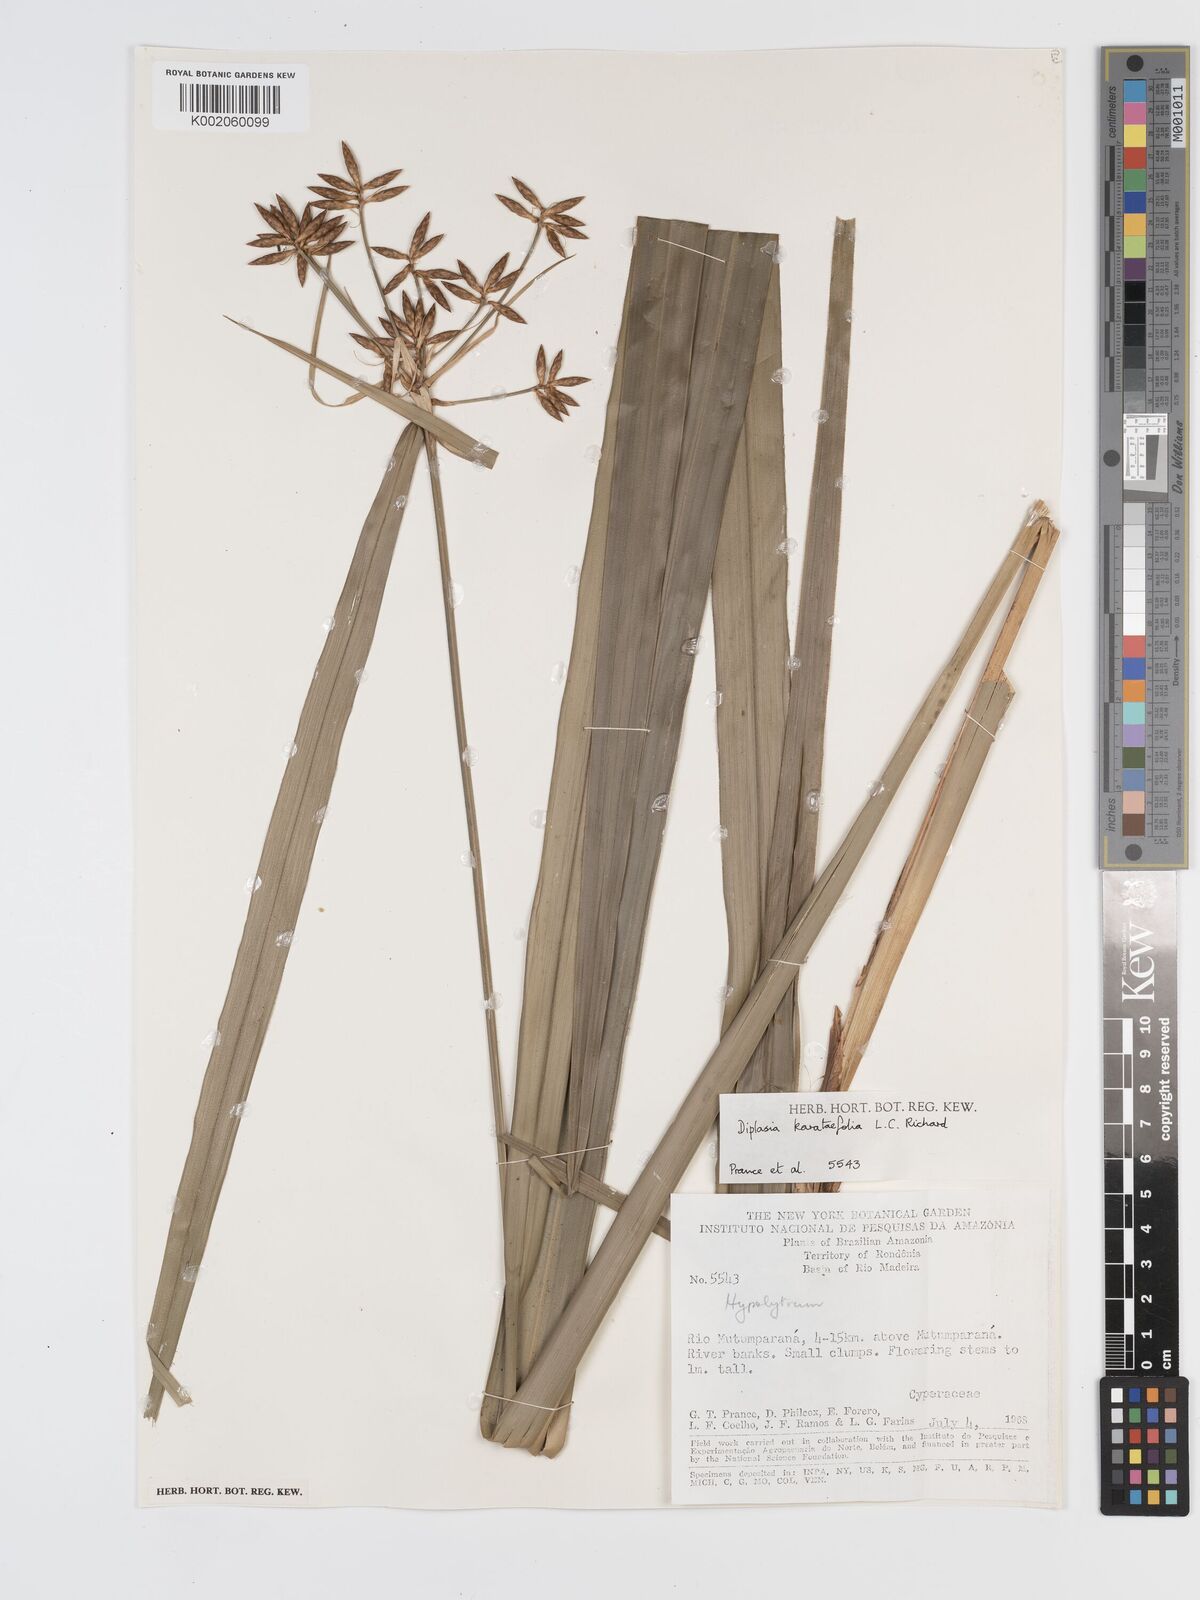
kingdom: Plantae
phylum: Tracheophyta
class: Liliopsida
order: Poales
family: Cyperaceae
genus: Diplasia
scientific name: Diplasia karatifolia
